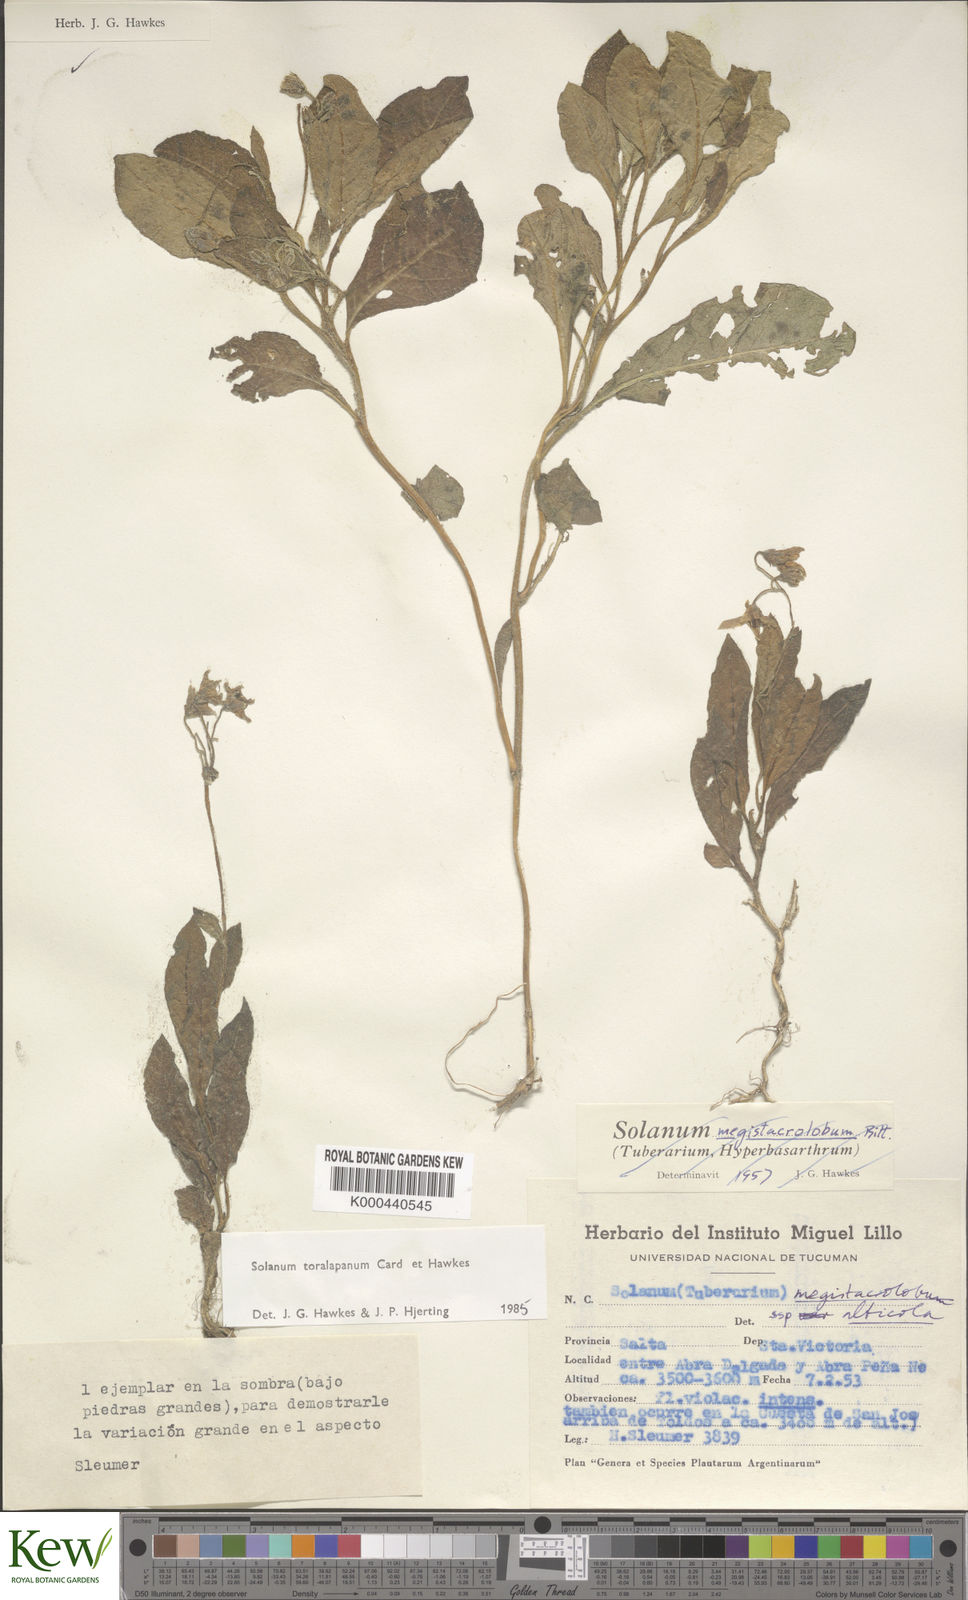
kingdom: Plantae
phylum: Tracheophyta
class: Magnoliopsida
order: Solanales
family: Solanaceae
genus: Solanum
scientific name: Solanum
